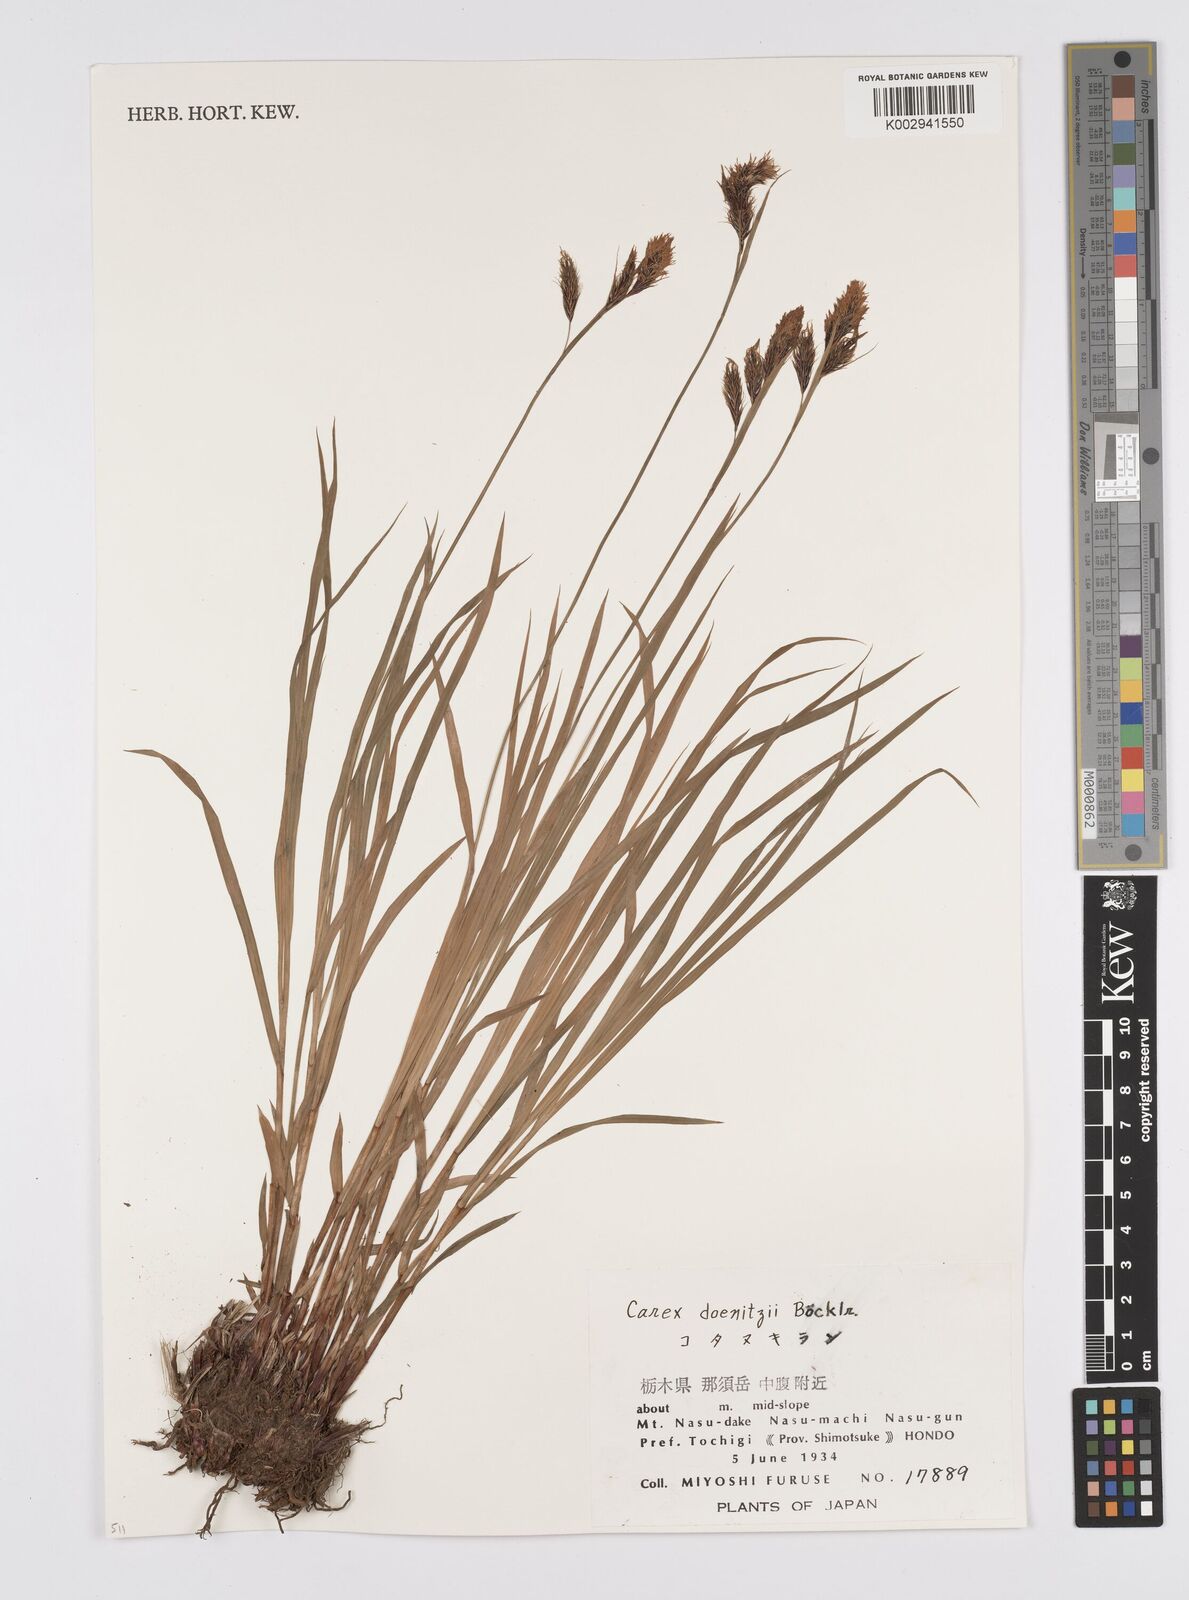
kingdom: Plantae
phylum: Tracheophyta
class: Liliopsida
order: Poales
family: Cyperaceae
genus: Carex
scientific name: Carex doenitzii
